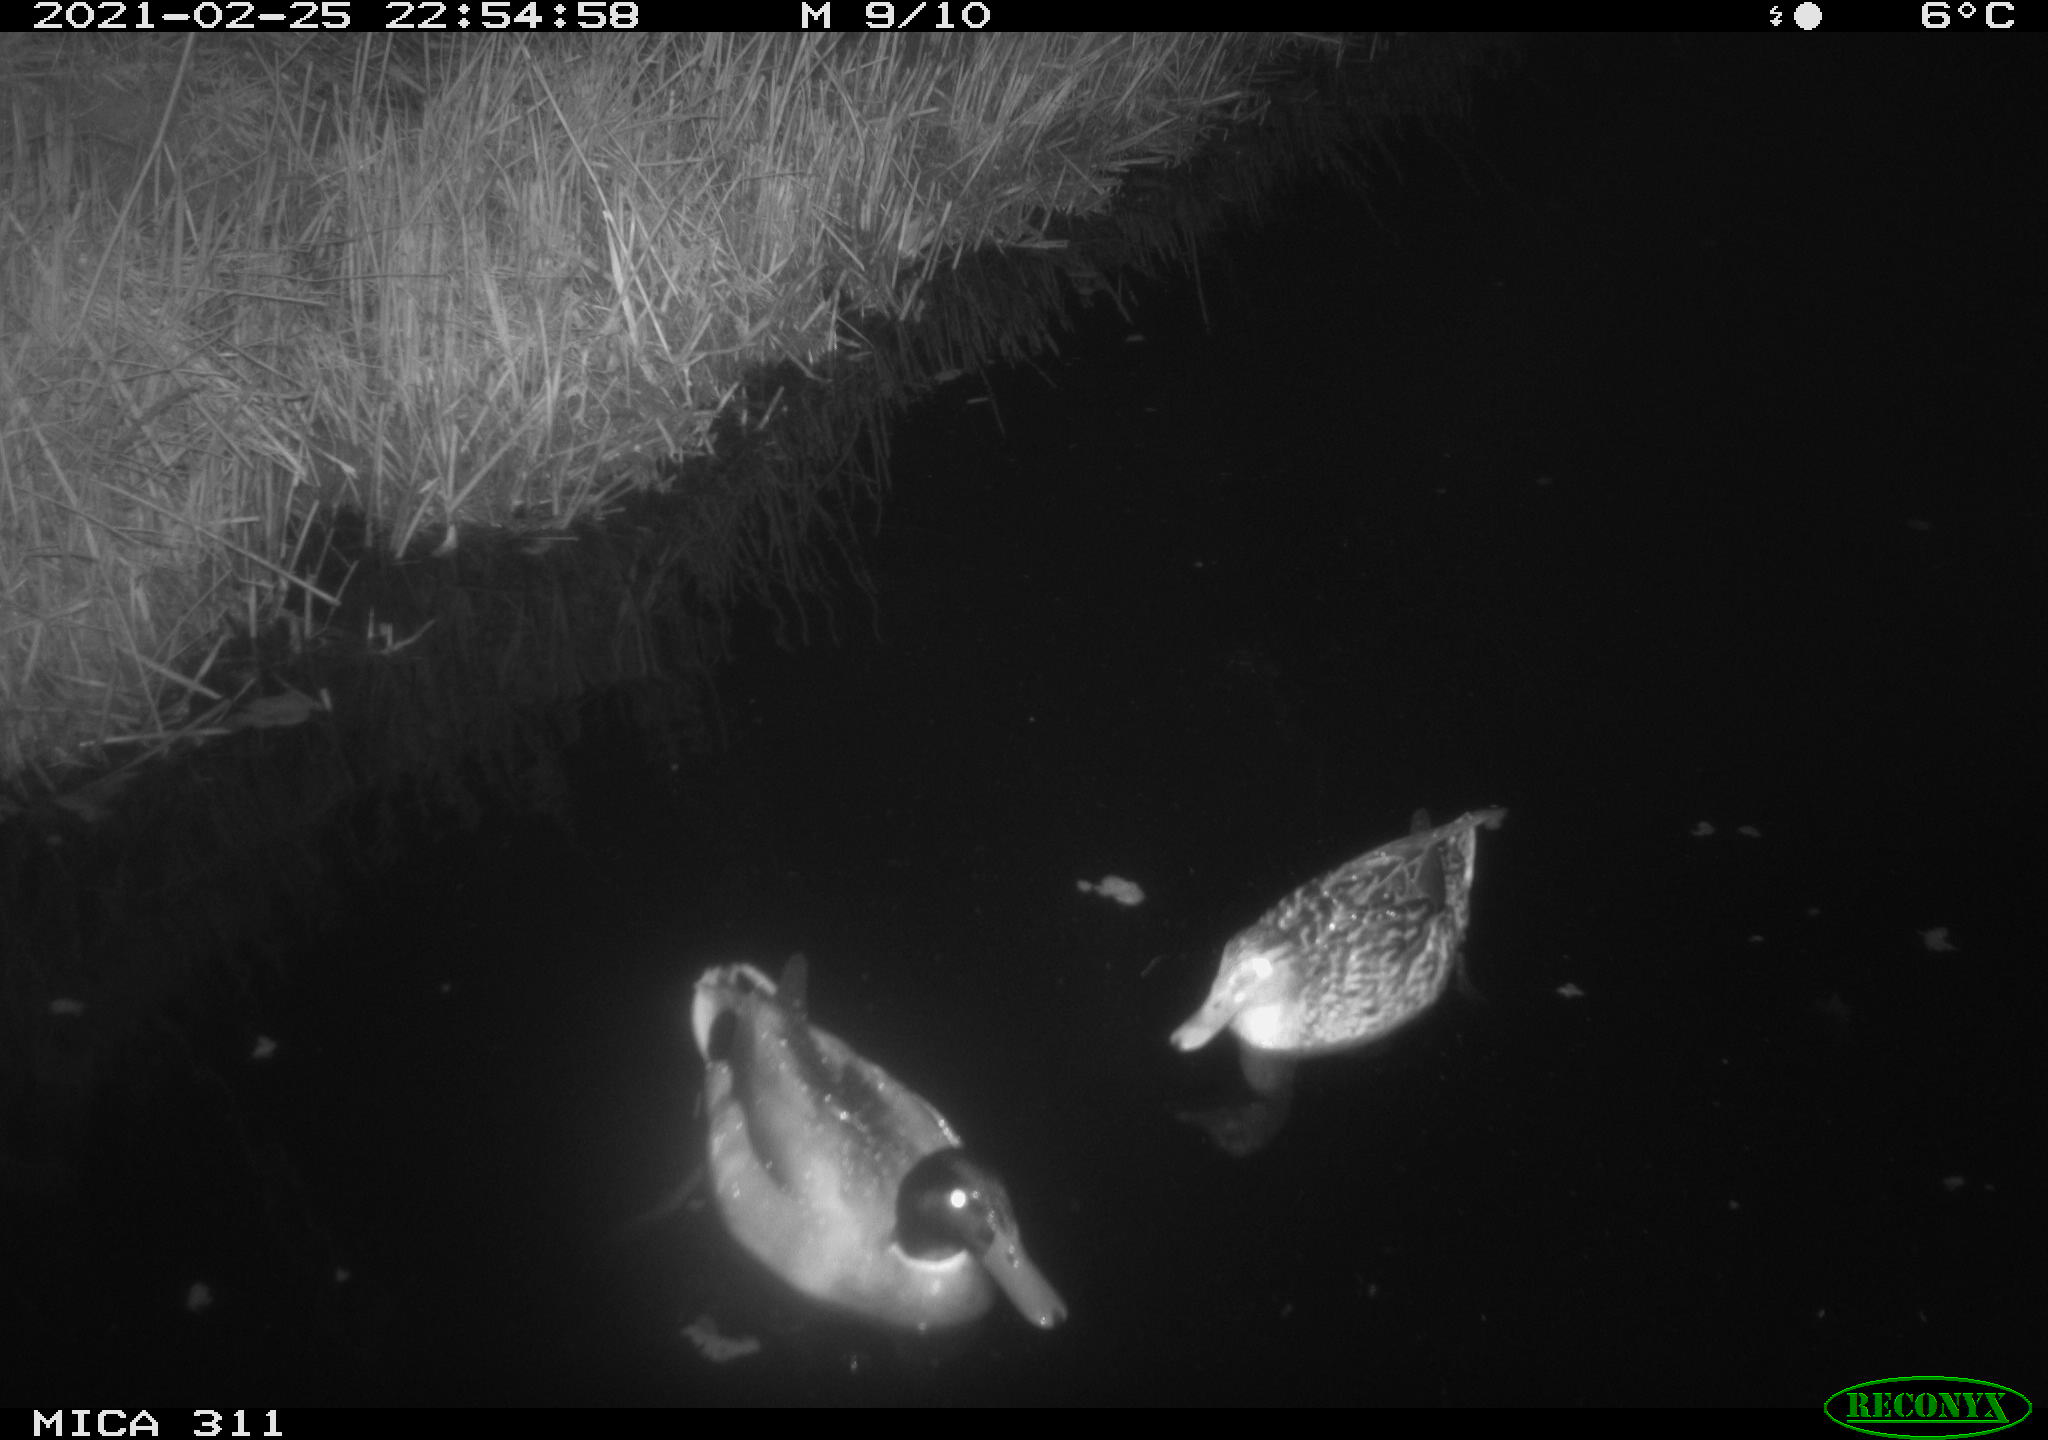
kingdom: Animalia
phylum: Chordata
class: Aves
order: Anseriformes
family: Anatidae
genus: Anas
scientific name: Anas
